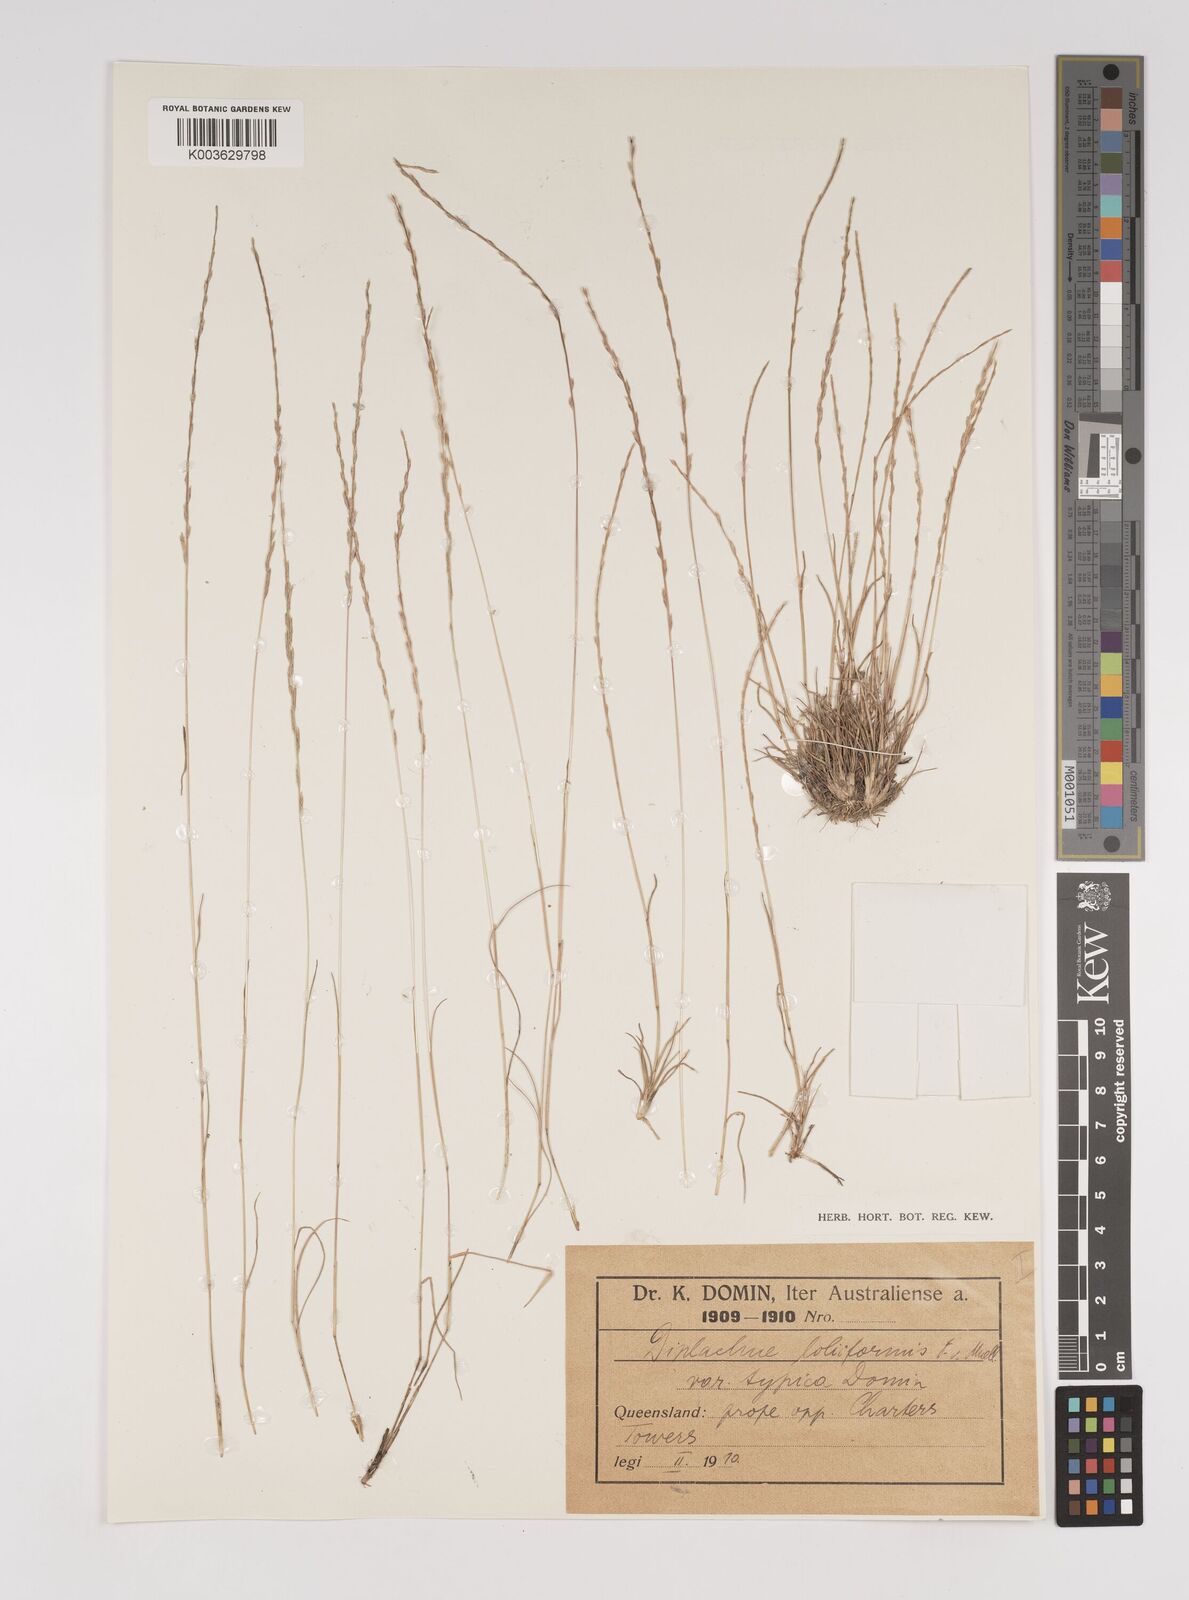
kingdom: Plantae
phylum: Tracheophyta
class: Liliopsida
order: Poales
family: Poaceae
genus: Tripogonella
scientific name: Tripogonella loliiformis
